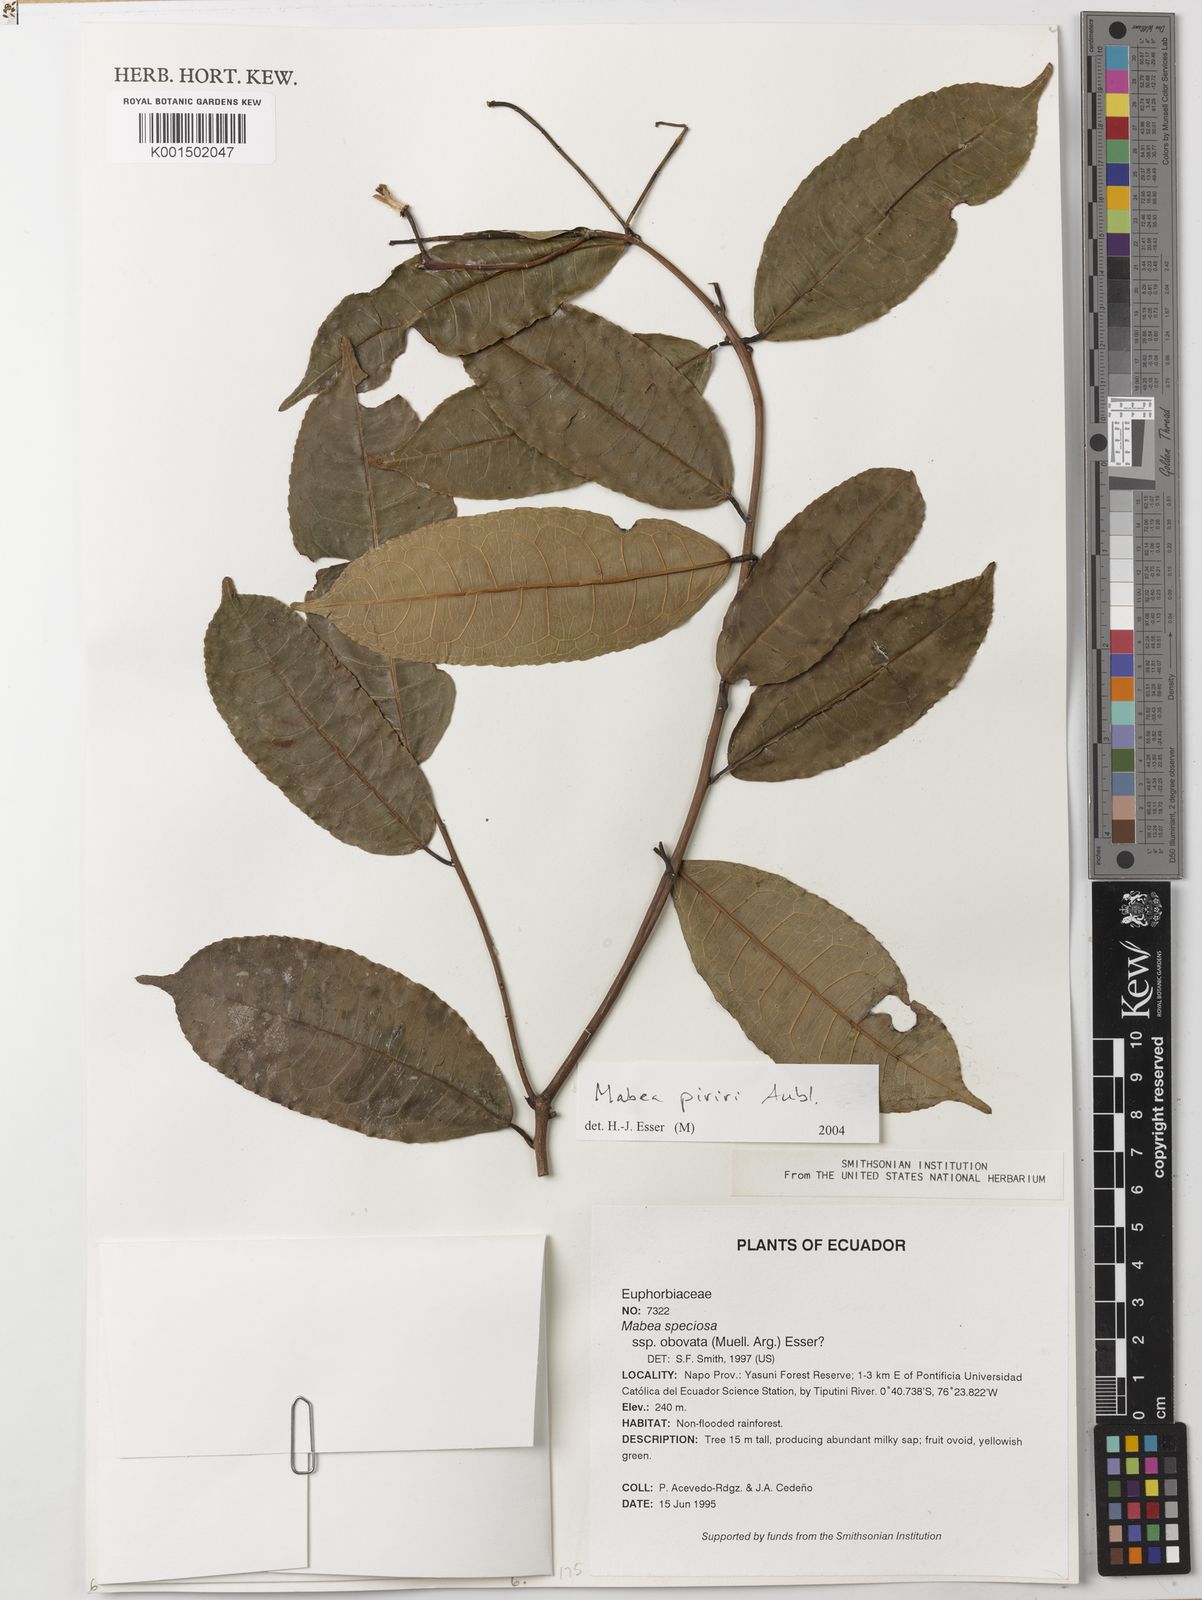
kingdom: Plantae
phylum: Tracheophyta
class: Magnoliopsida
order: Malpighiales
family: Euphorbiaceae
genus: Mabea
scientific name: Mabea piriri
